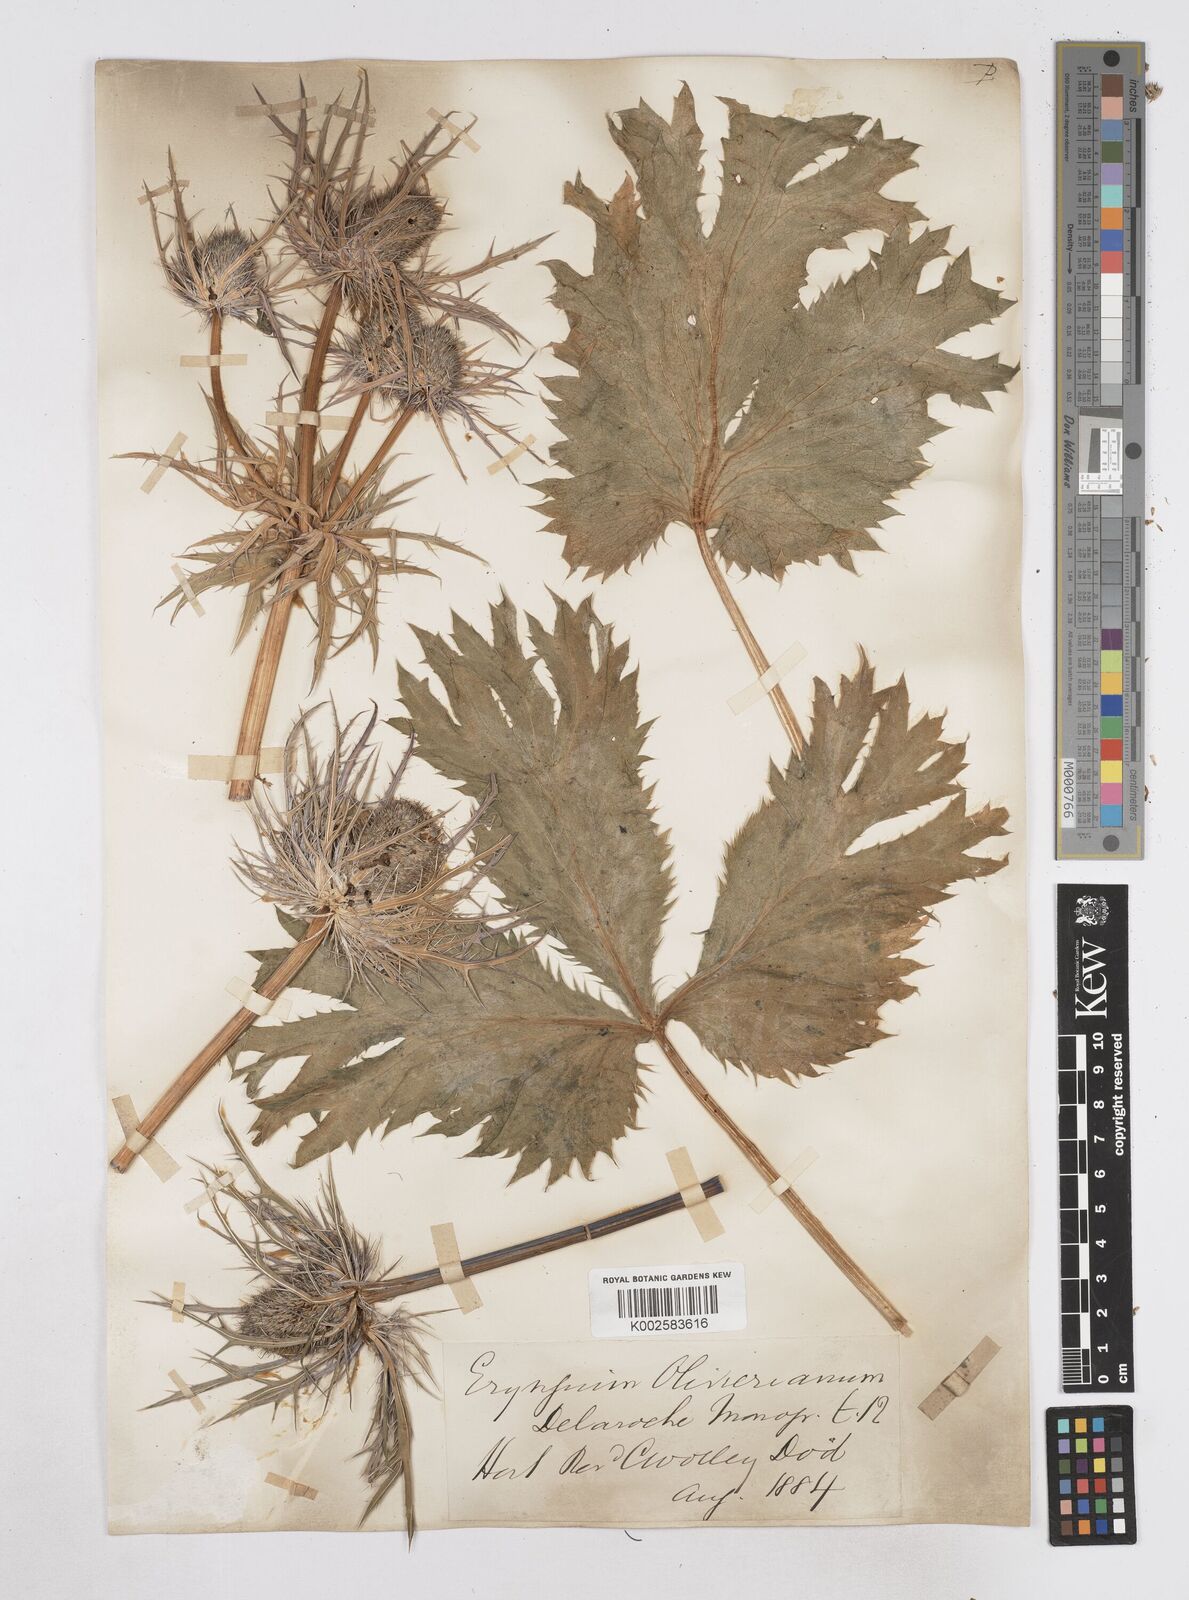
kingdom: Plantae
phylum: Tracheophyta
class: Magnoliopsida
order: Apiales
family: Apiaceae
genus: Eryngium
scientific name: Eryngium oliverianum
